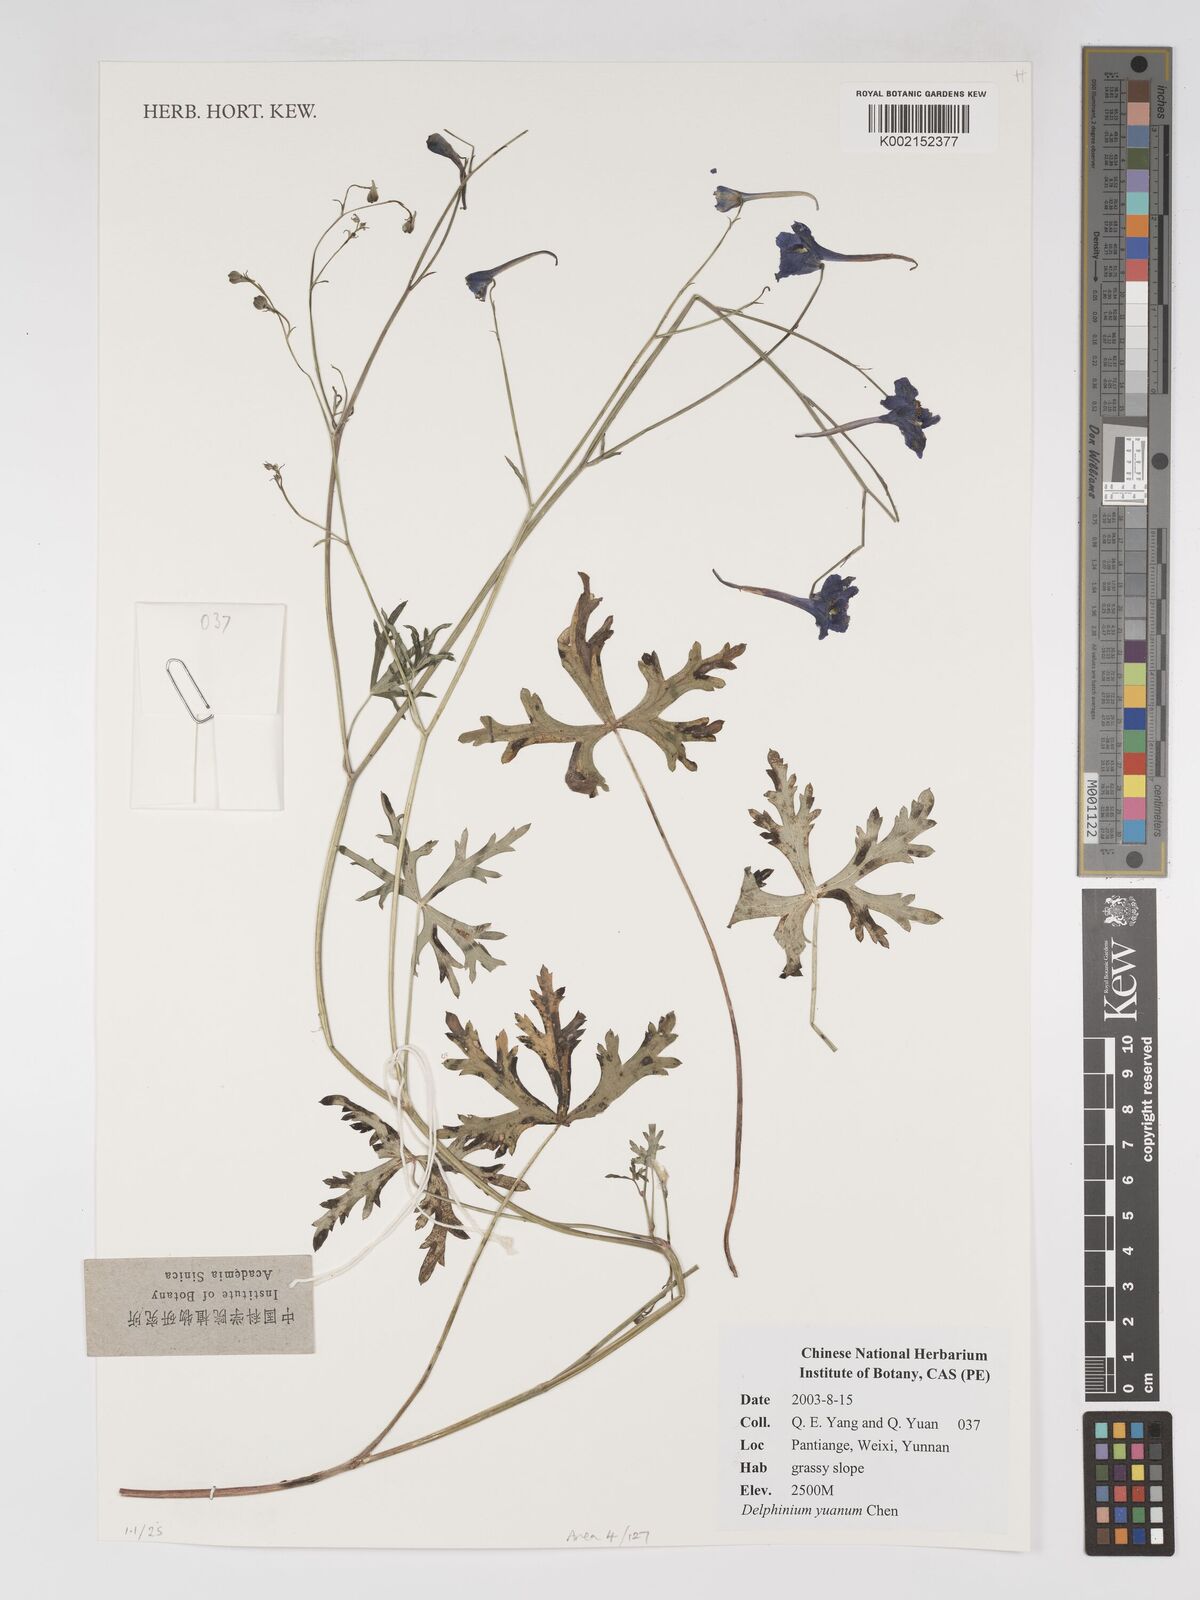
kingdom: Plantae
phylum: Tracheophyta
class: Magnoliopsida
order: Ranunculales
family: Ranunculaceae
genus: Delphinium
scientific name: Delphinium yuanum
